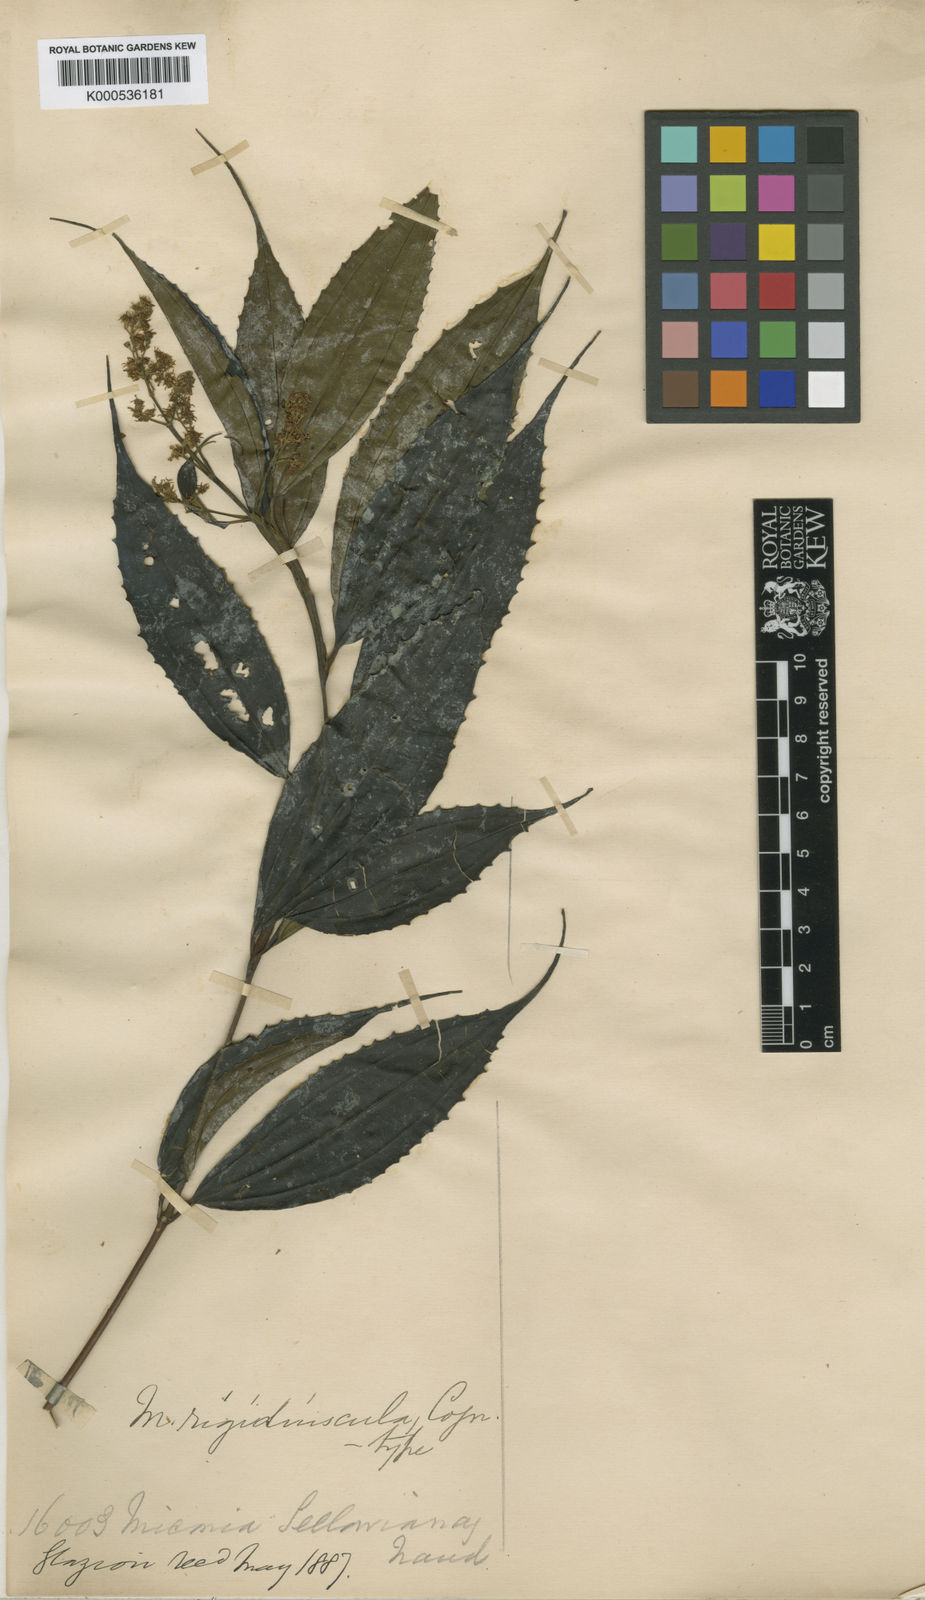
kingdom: Plantae
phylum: Tracheophyta
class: Magnoliopsida
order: Myrtales
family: Melastomataceae
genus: Miconia
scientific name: Miconia pusilliflora
